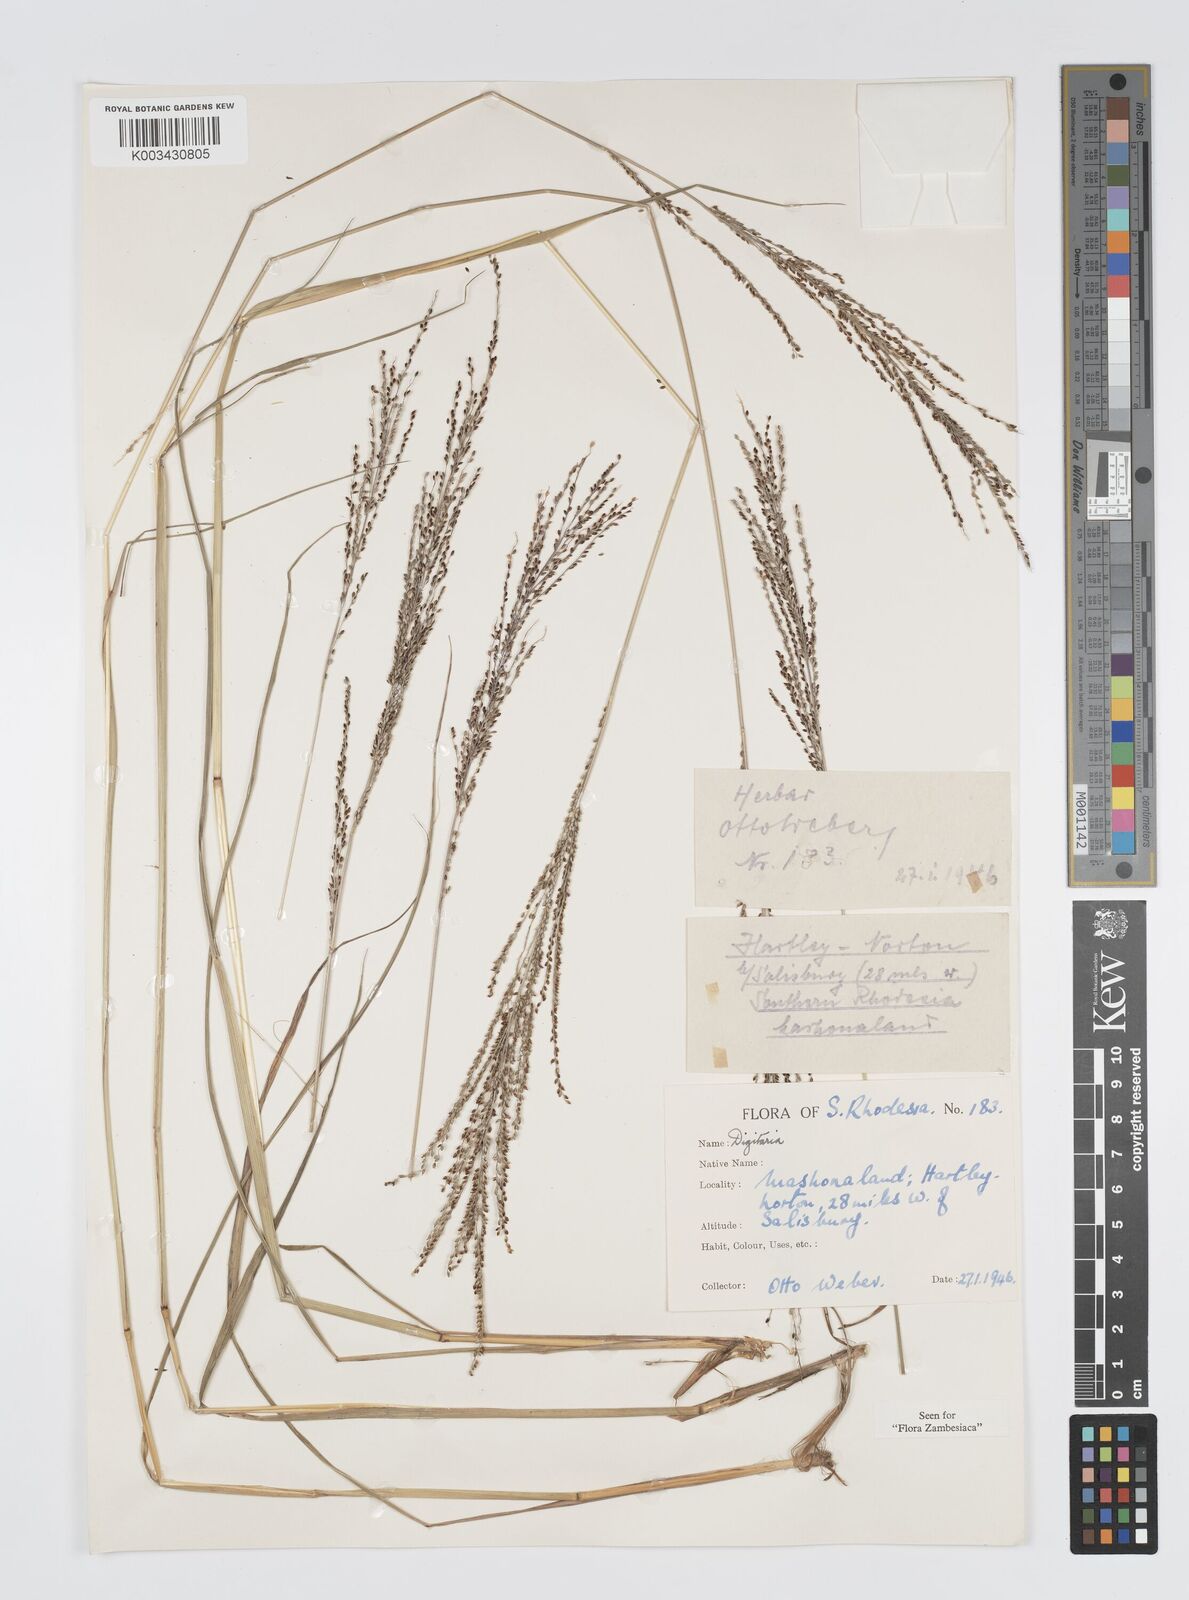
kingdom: Plantae
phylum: Tracheophyta
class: Liliopsida
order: Poales
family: Poaceae
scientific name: Poaceae
